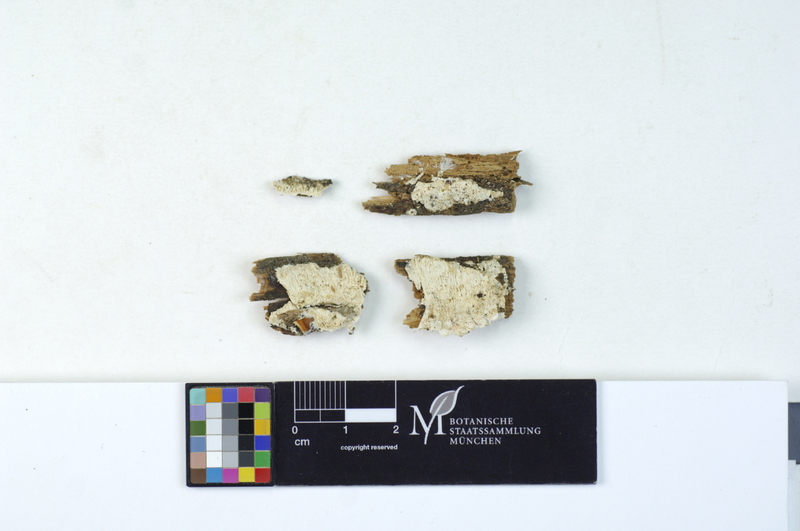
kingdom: Fungi
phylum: Basidiomycota
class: Agaricomycetes
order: Polyporales
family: Dacryobolaceae
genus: Postia
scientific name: Postia sericeomollis
